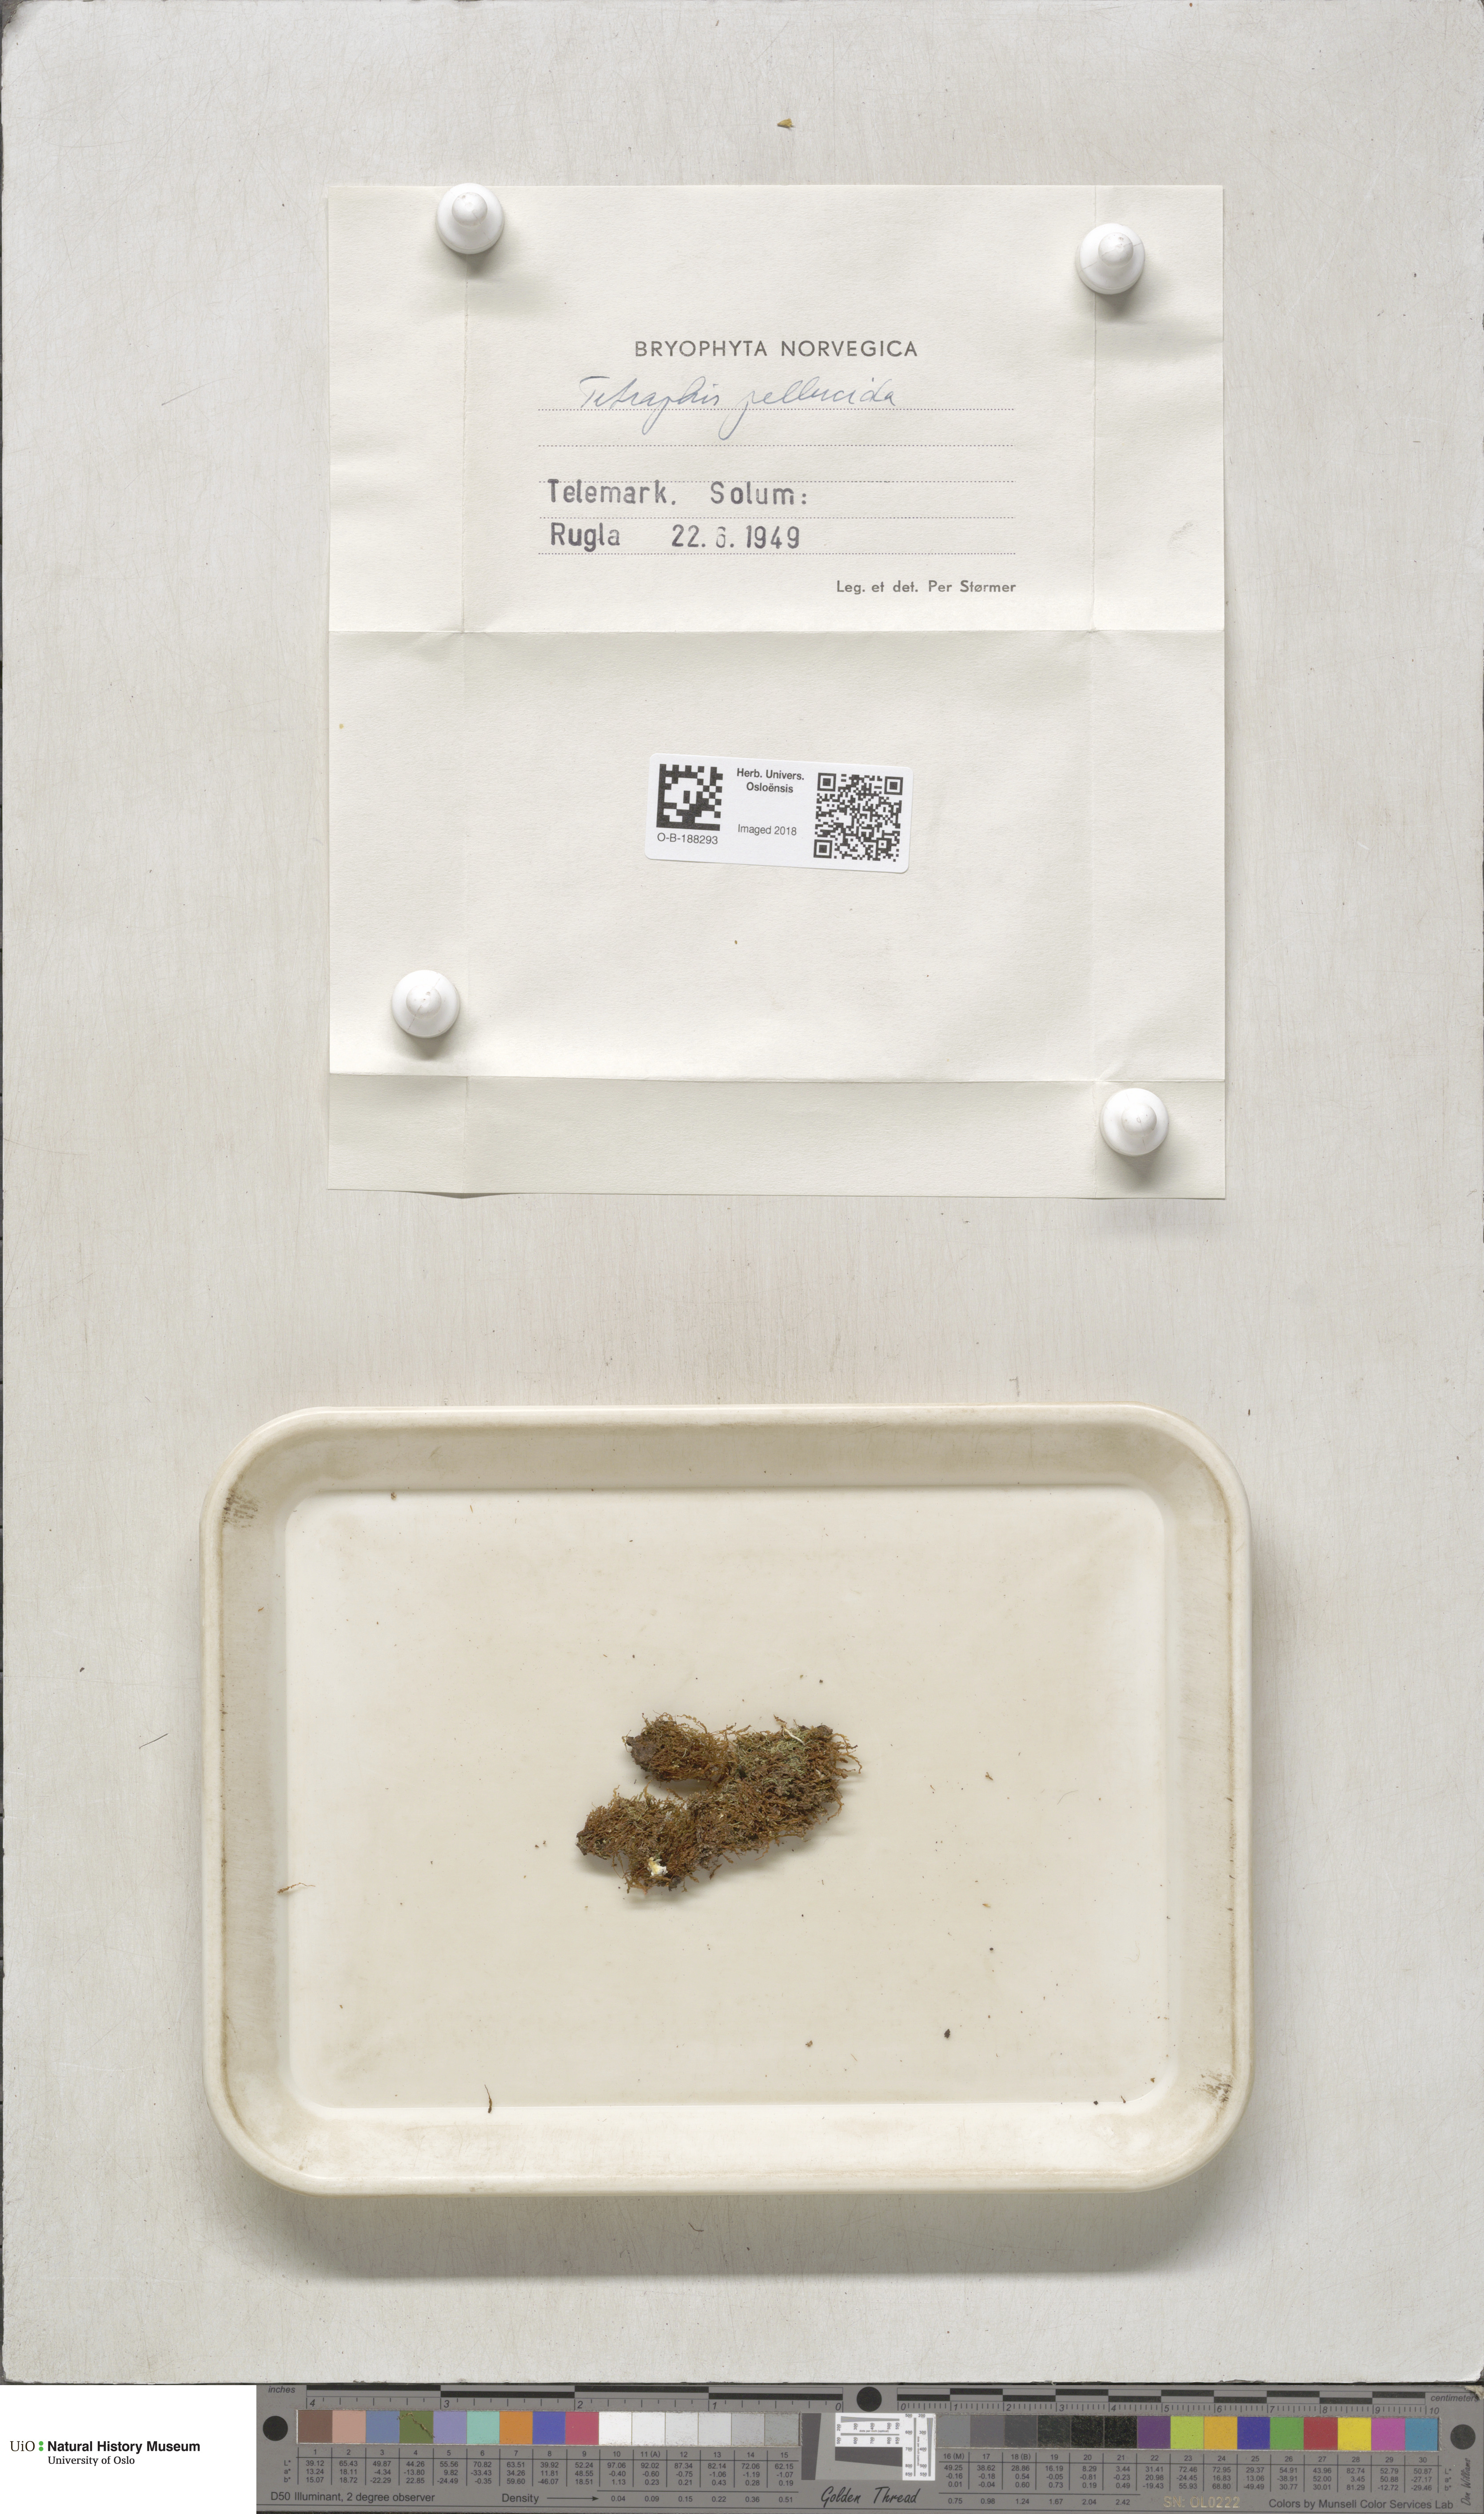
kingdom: Plantae
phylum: Bryophyta
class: Polytrichopsida
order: Tetraphidales
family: Tetraphidaceae
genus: Tetraphis
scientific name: Tetraphis pellucida
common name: Common four-toothed moss
